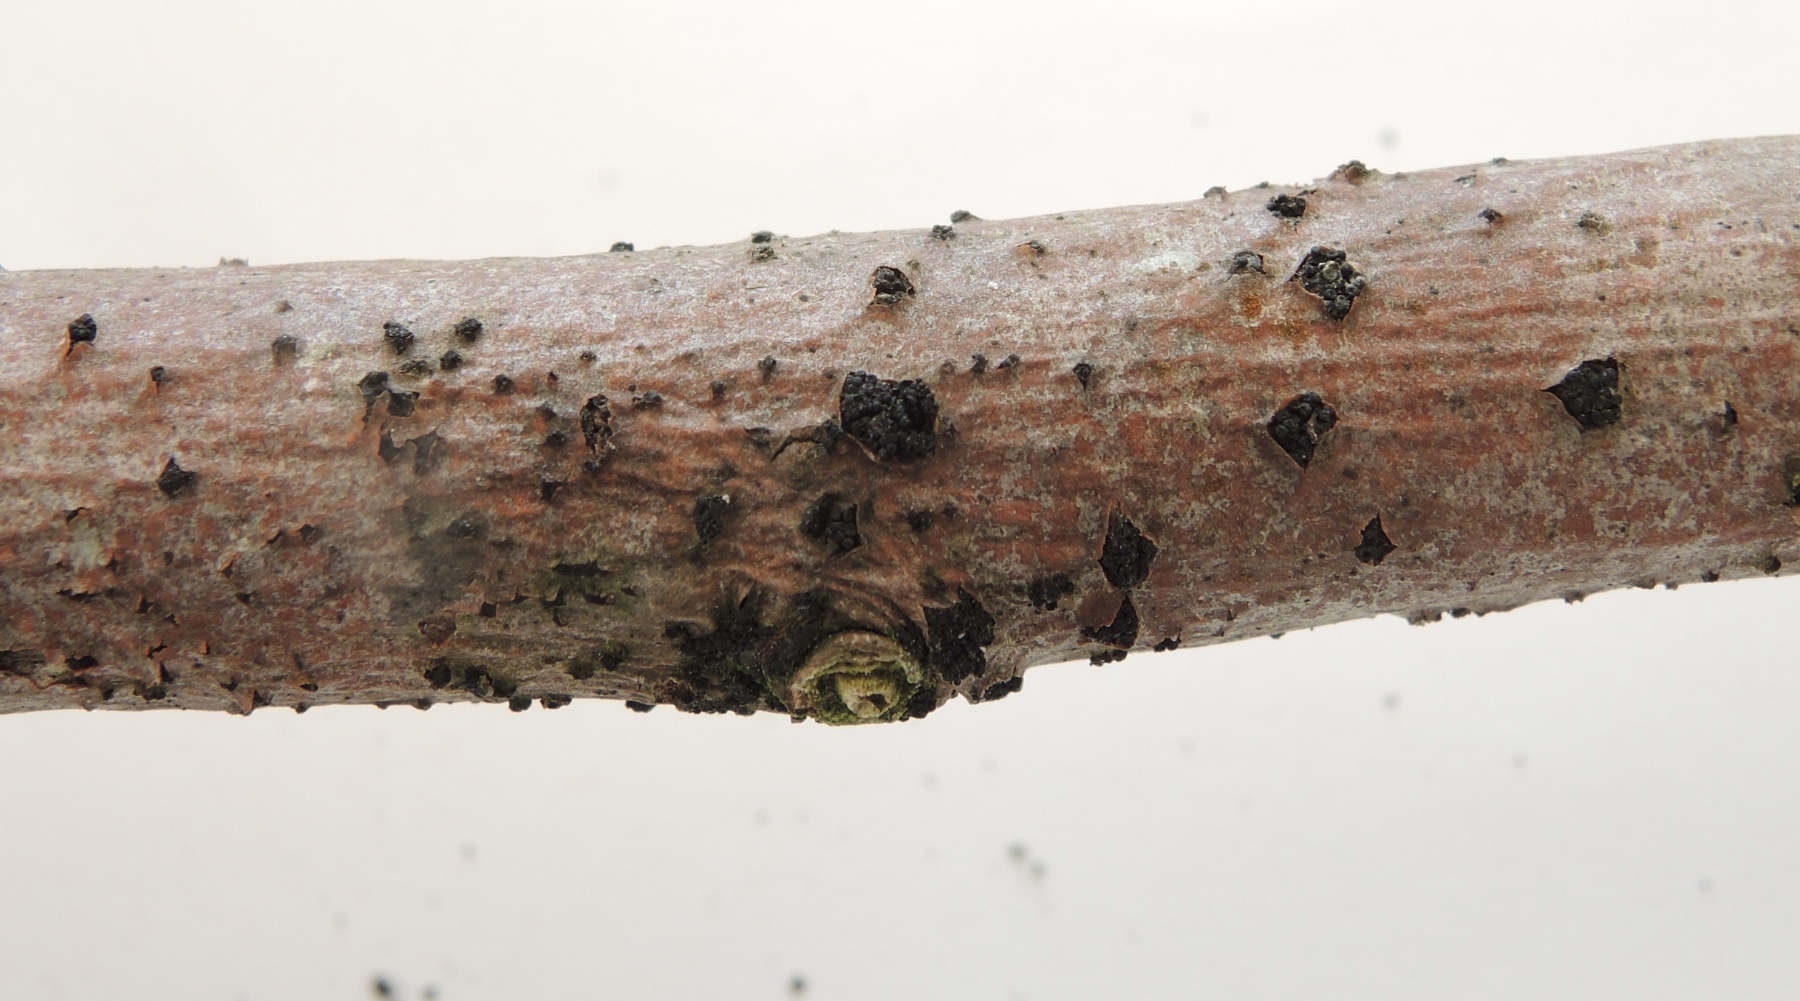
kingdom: Fungi
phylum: Ascomycota
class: Sordariomycetes
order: Coronophorales
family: Nitschkiaceae
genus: Nitschkia
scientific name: Nitschkia parasitans
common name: snyltende skålkerne
